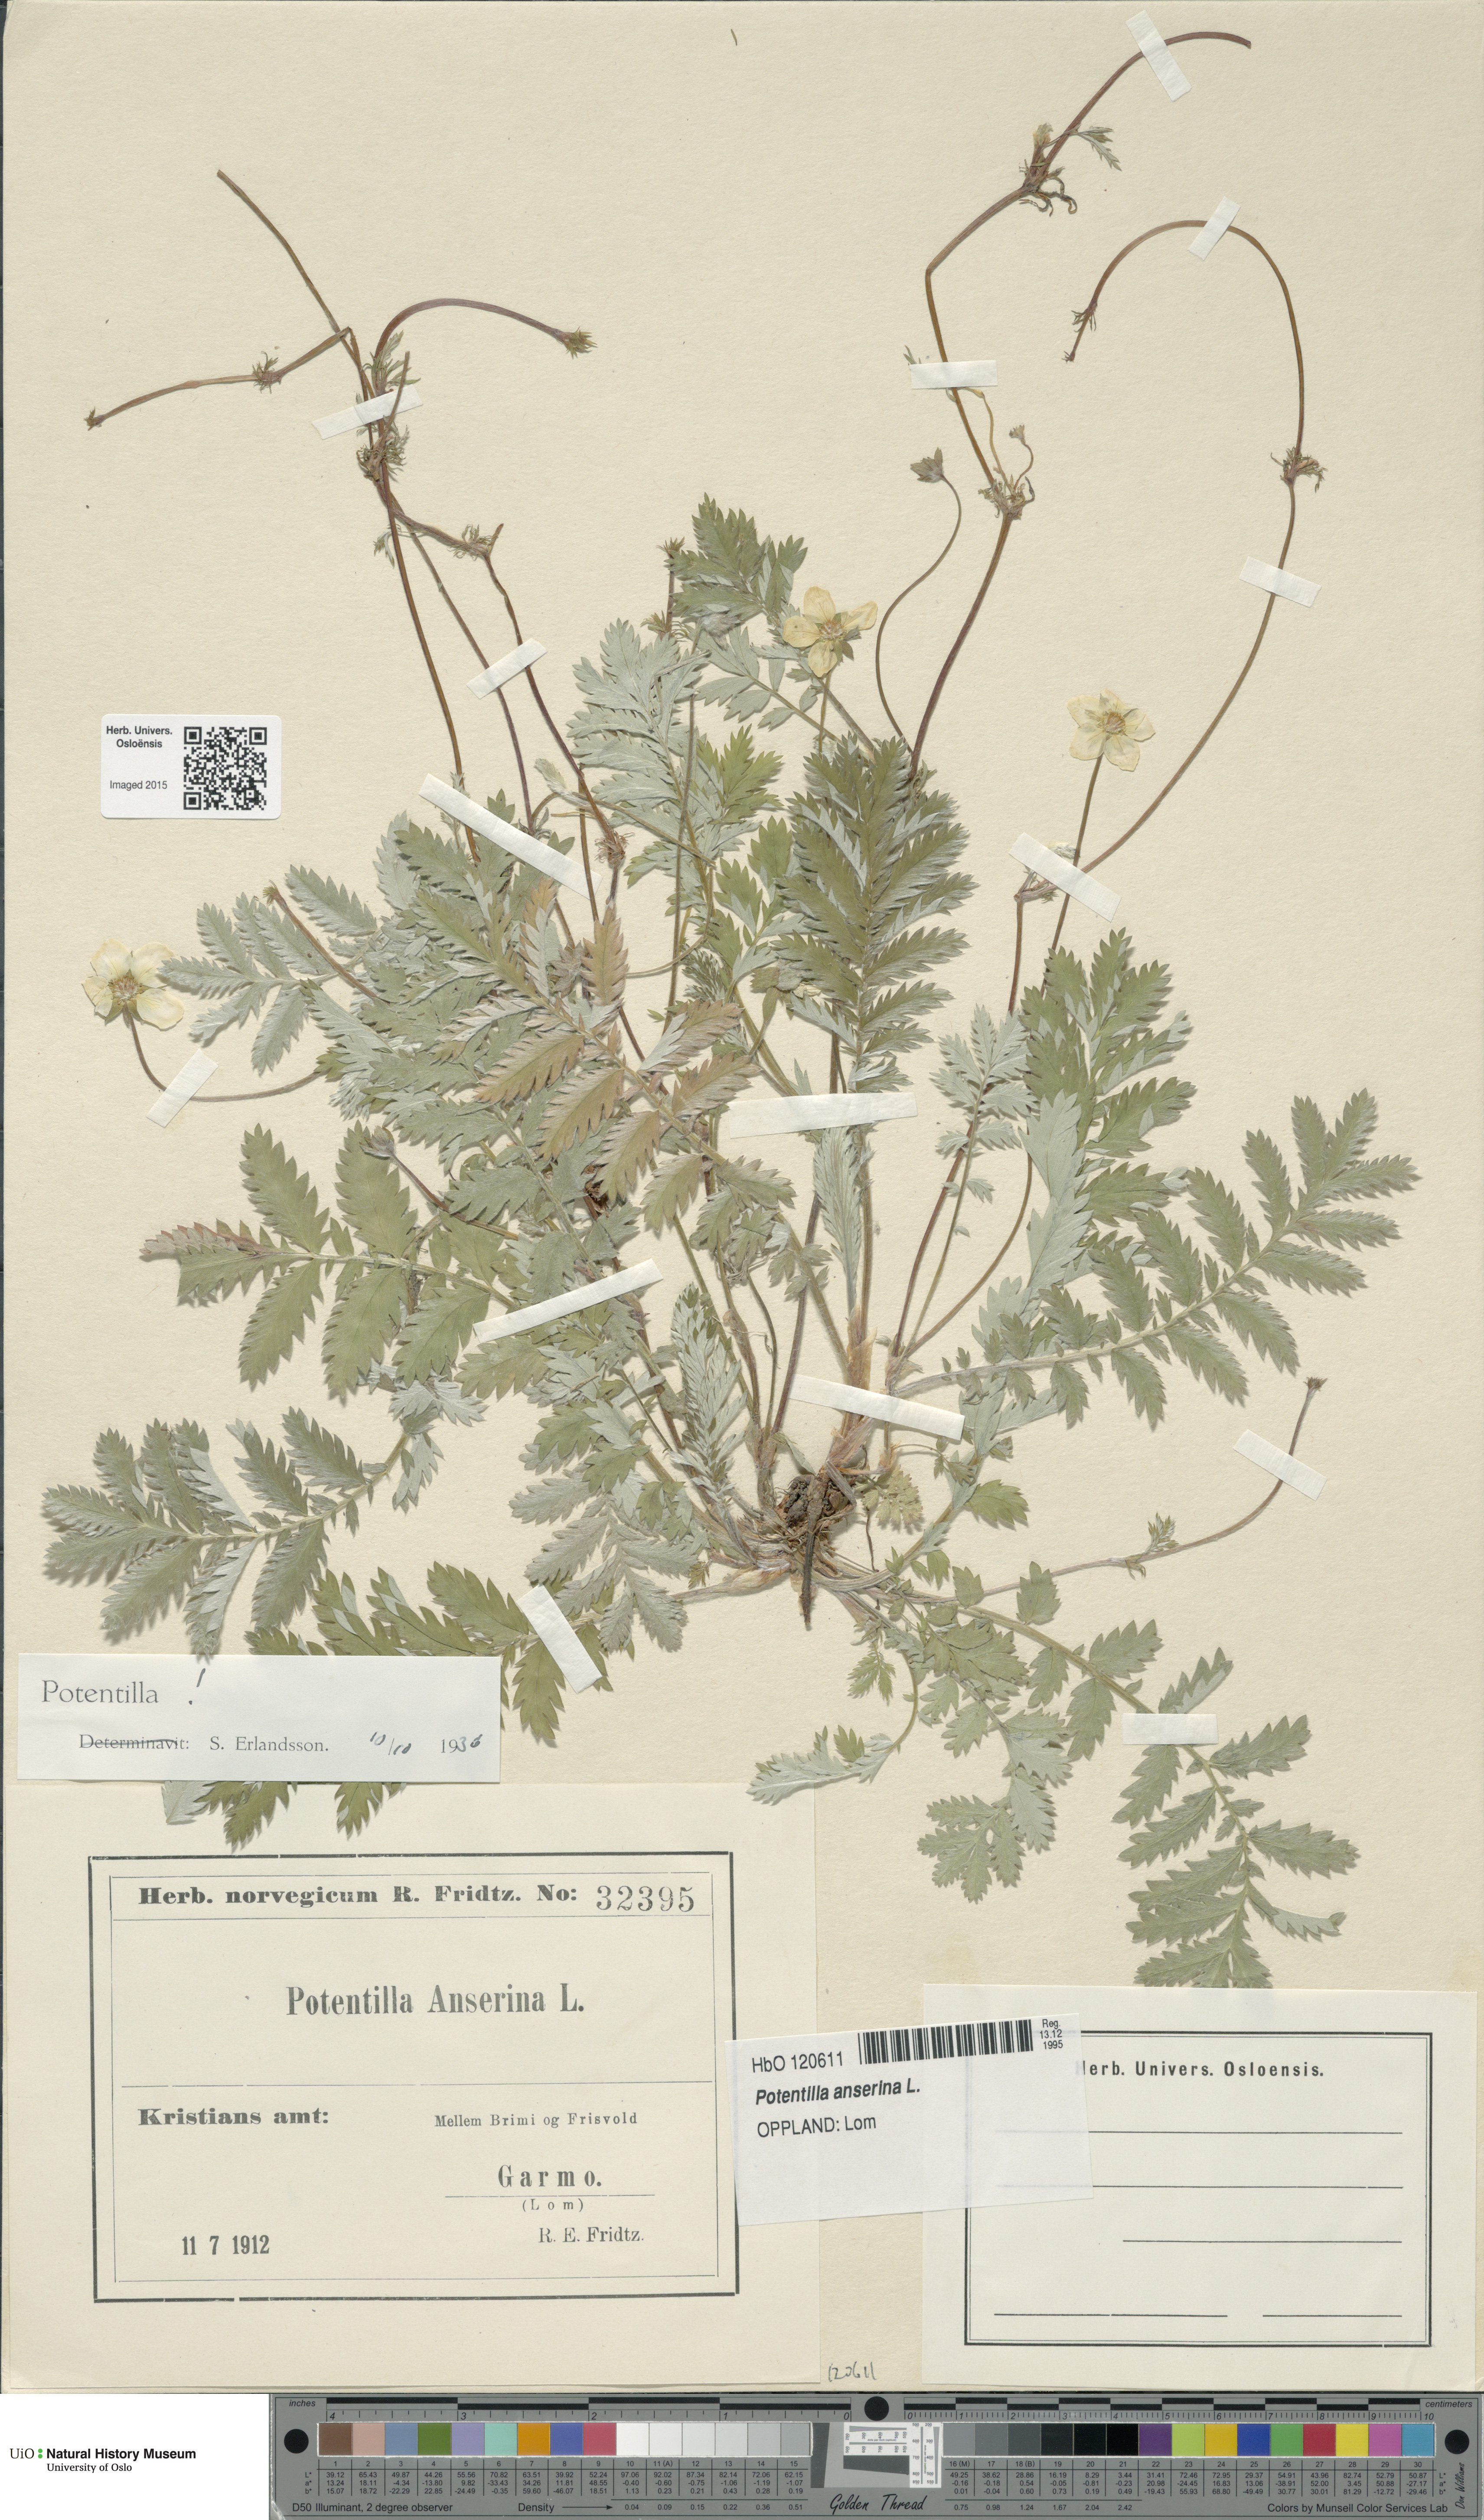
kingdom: Plantae
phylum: Tracheophyta
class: Magnoliopsida
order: Rosales
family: Rosaceae
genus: Argentina
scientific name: Argentina anserina
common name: Common silverweed
